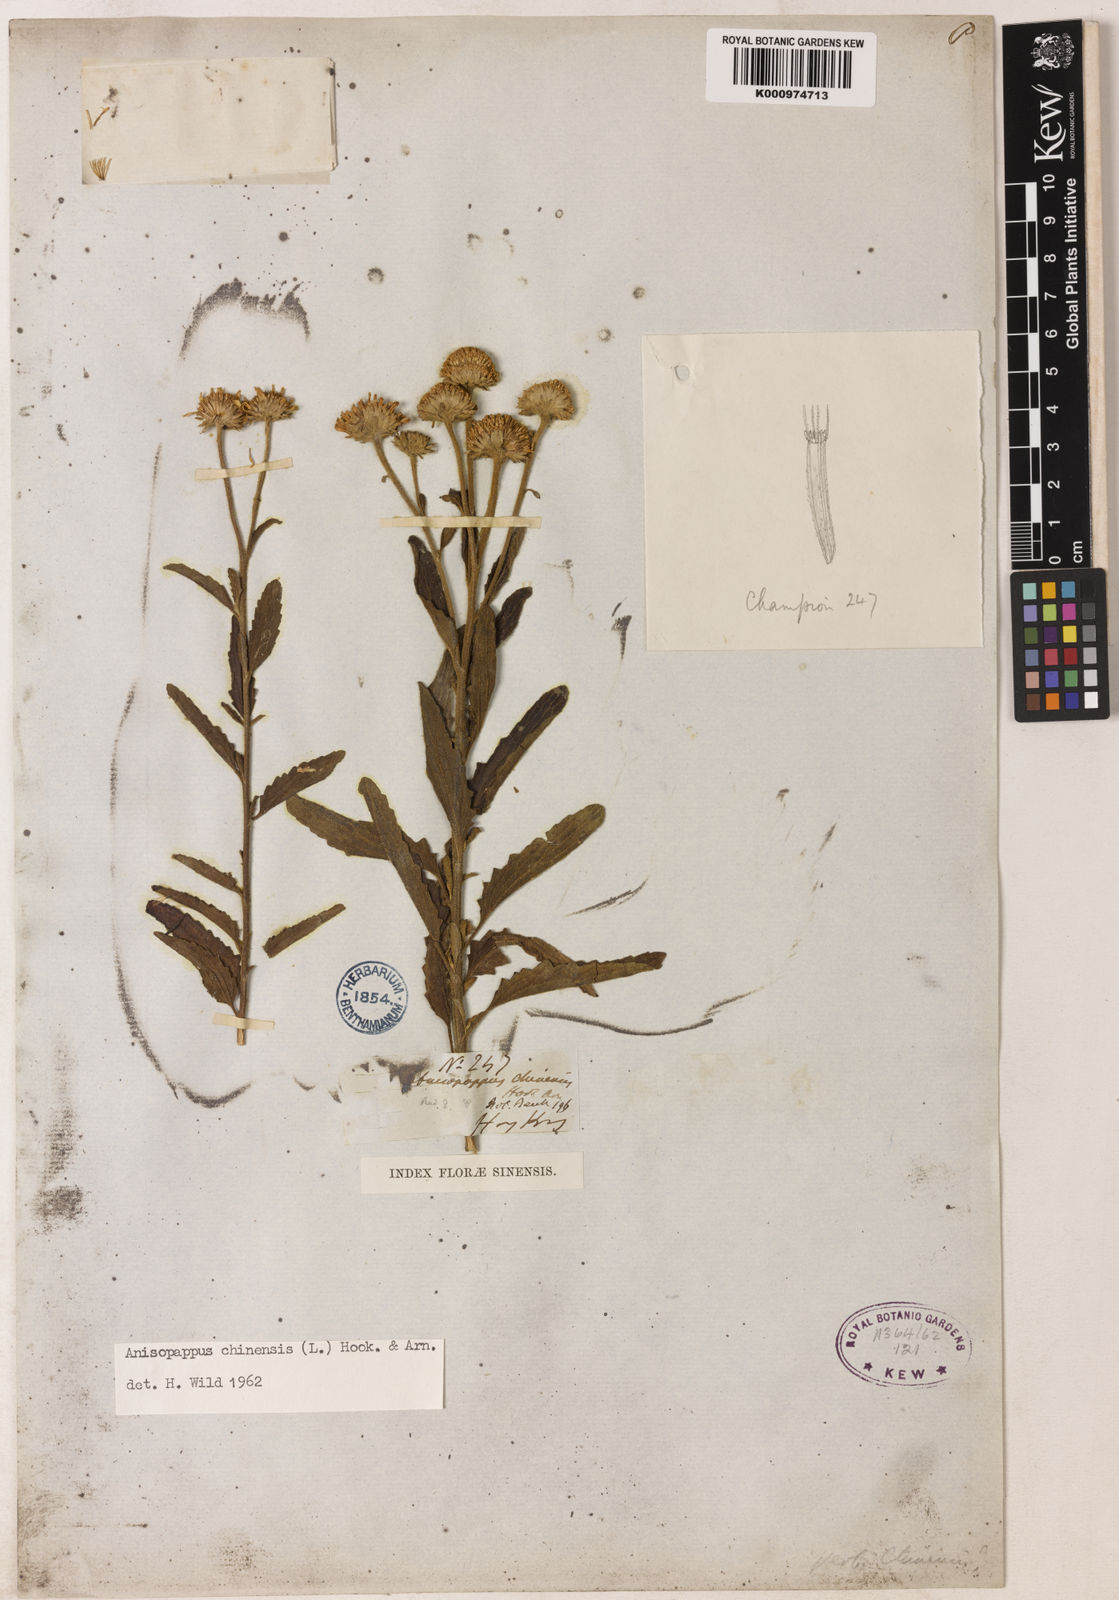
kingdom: Plantae
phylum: Tracheophyta
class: Magnoliopsida
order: Asterales
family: Asteraceae
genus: Anisopappus
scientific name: Anisopappus chinensis
